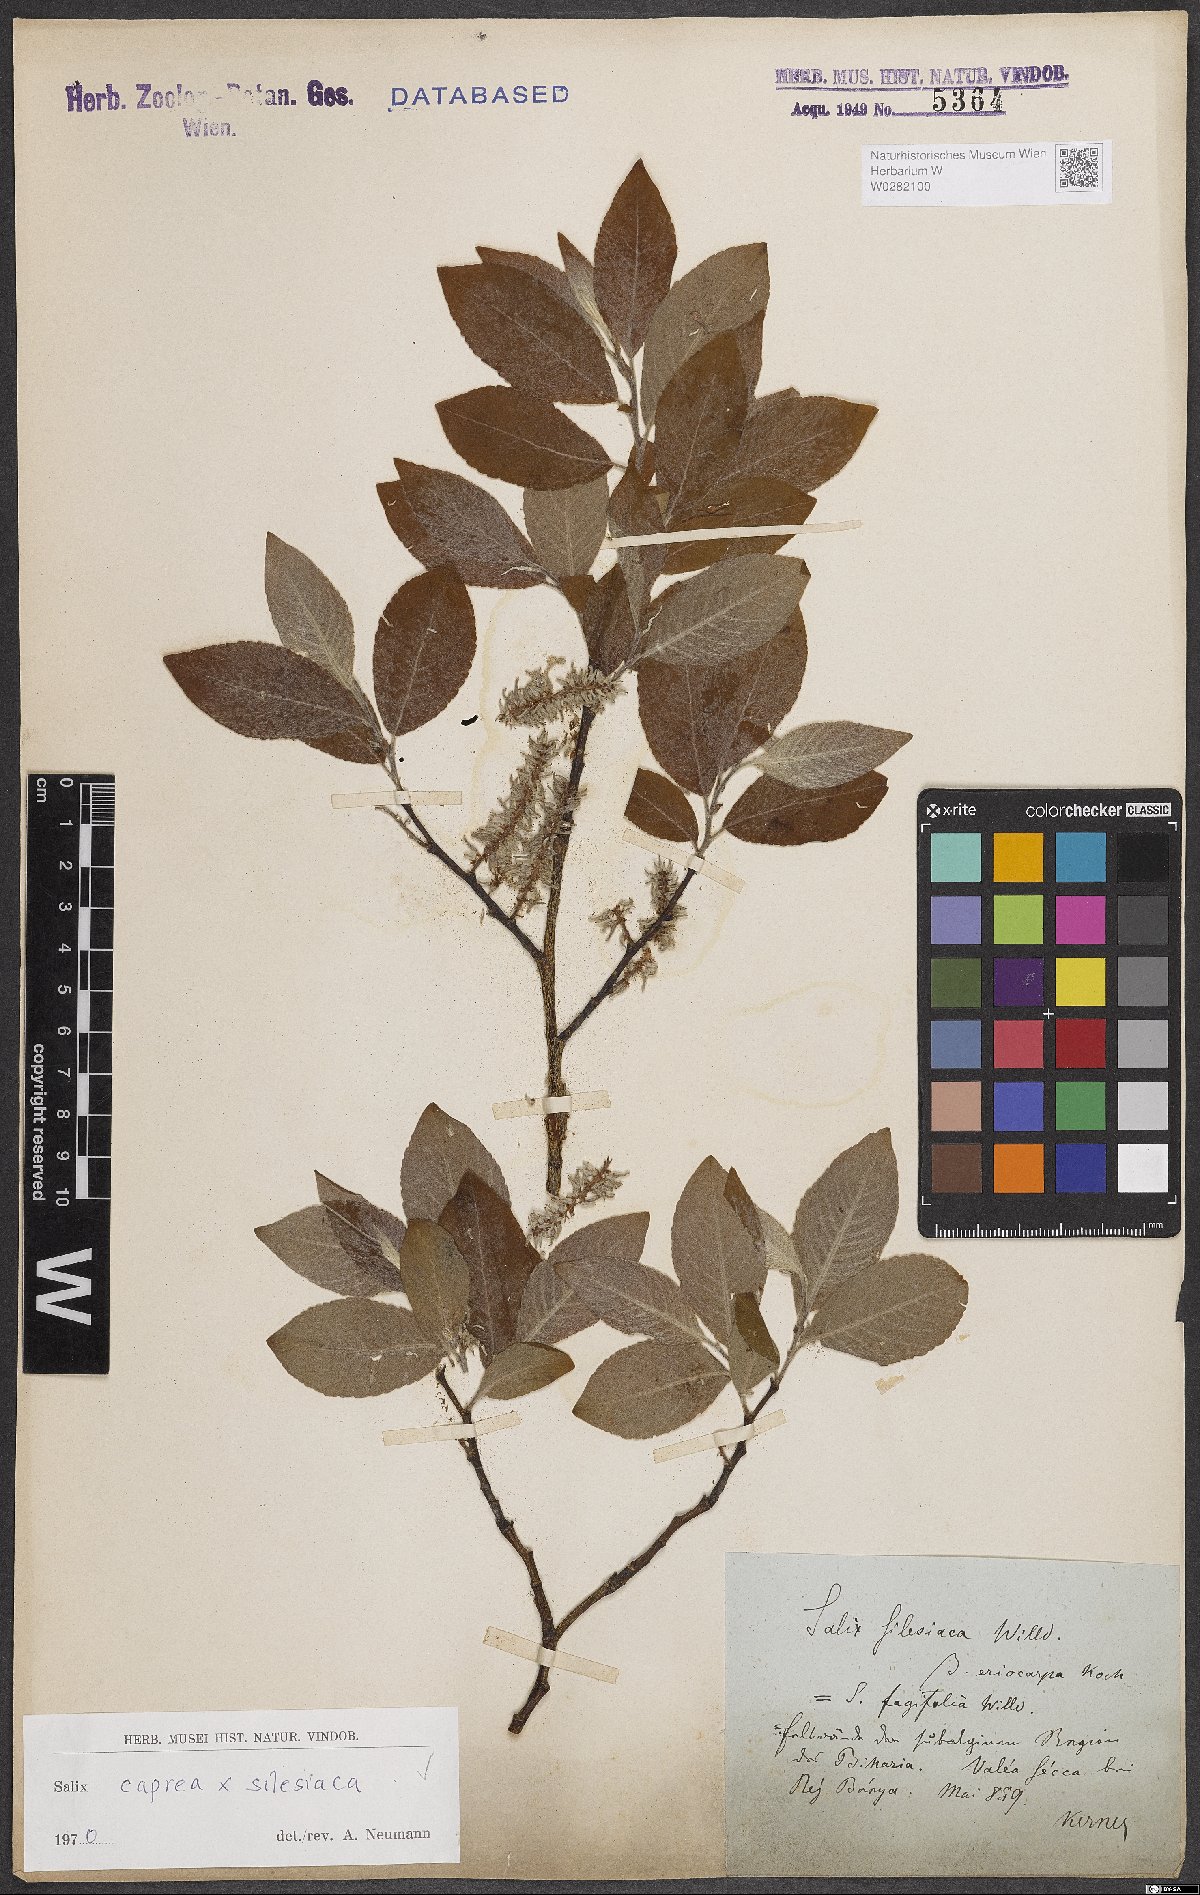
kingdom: Plantae
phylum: Tracheophyta
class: Magnoliopsida
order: Malpighiales
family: Salicaceae
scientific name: Salicaceae
